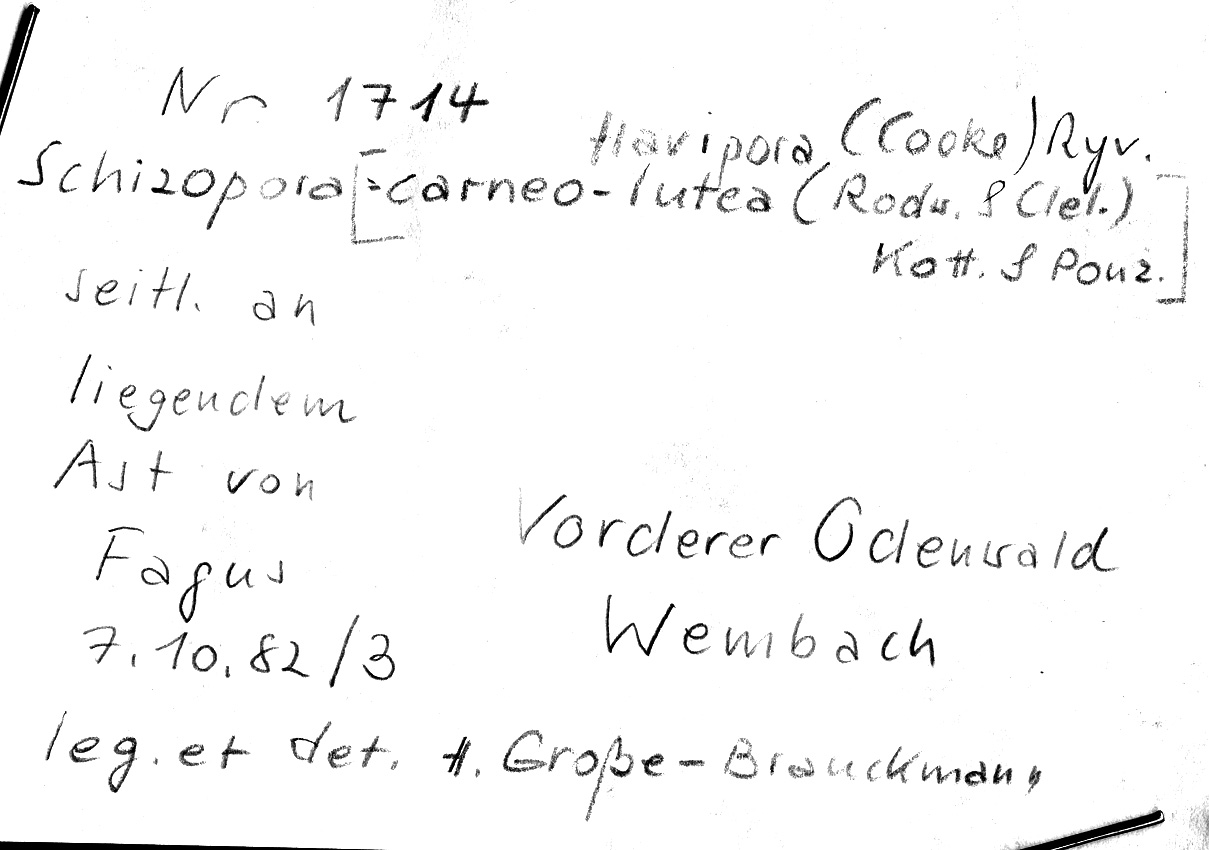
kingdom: Plantae
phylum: Tracheophyta
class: Magnoliopsida
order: Fagales
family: Fagaceae
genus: Fagus
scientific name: Fagus sylvatica
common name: Beech
